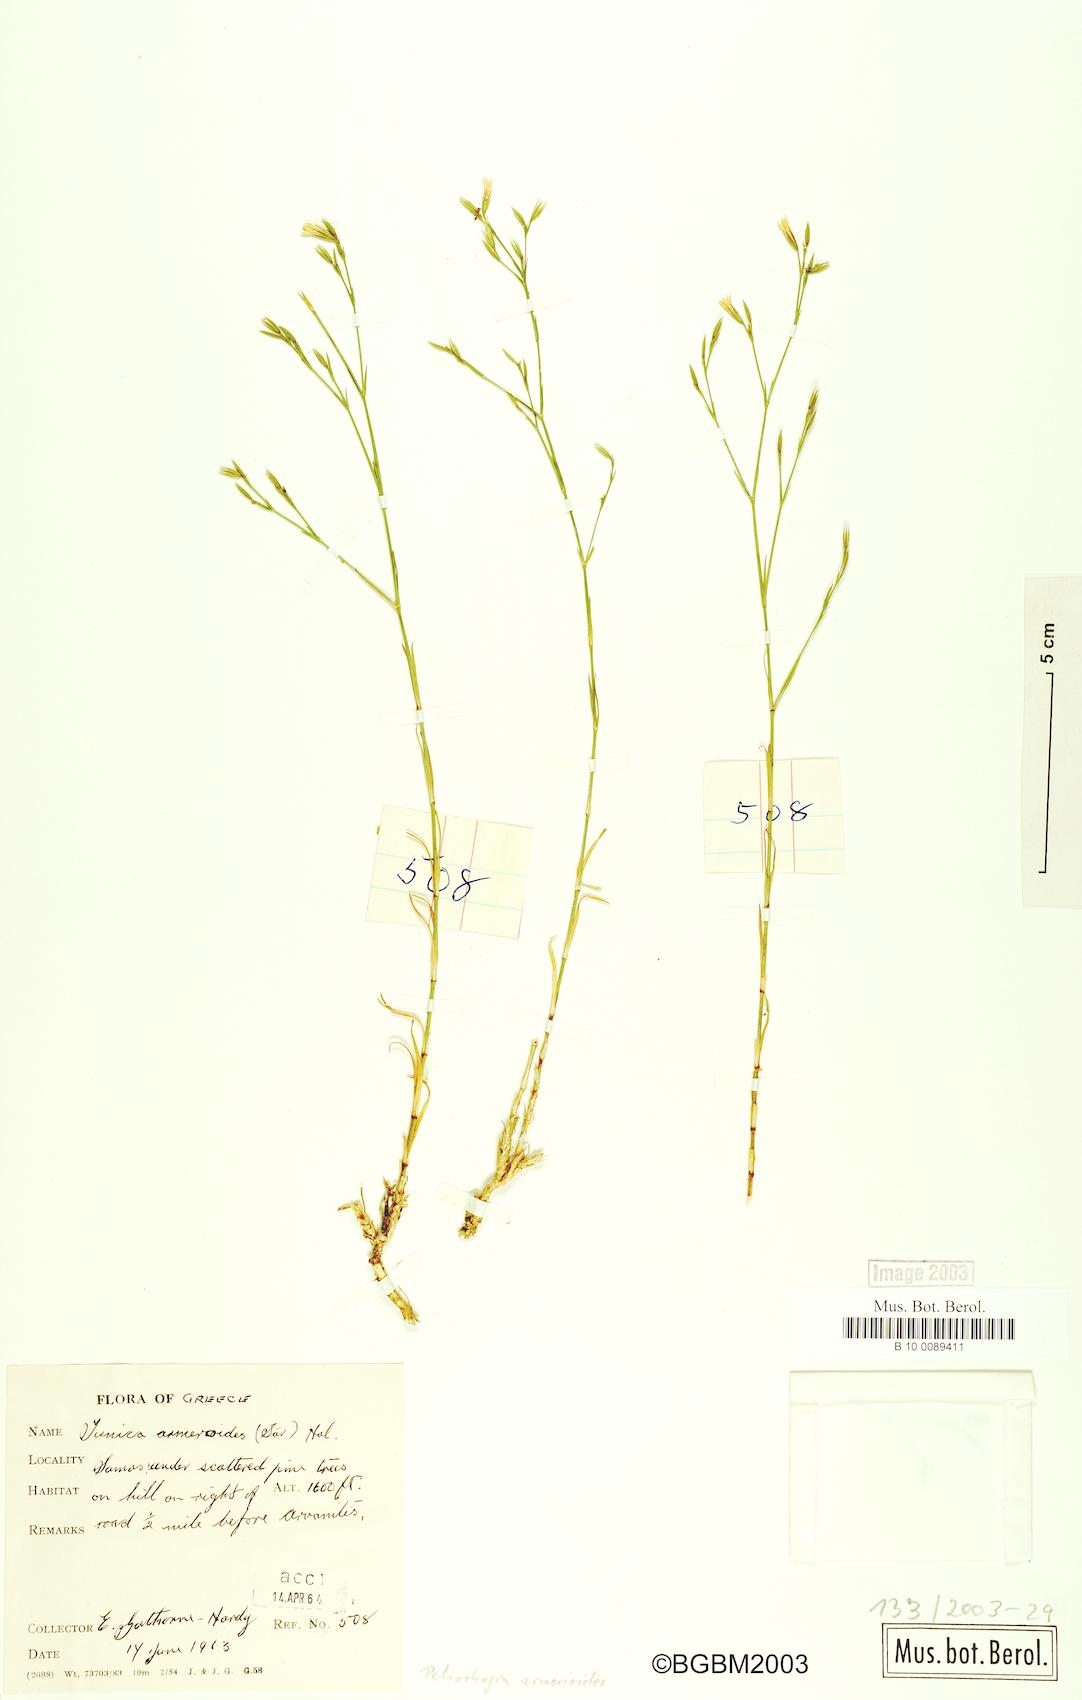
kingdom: Plantae
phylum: Tracheophyta
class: Magnoliopsida
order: Caryophyllales
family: Caryophyllaceae
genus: Dianthus
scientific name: Dianthus tunicoides
